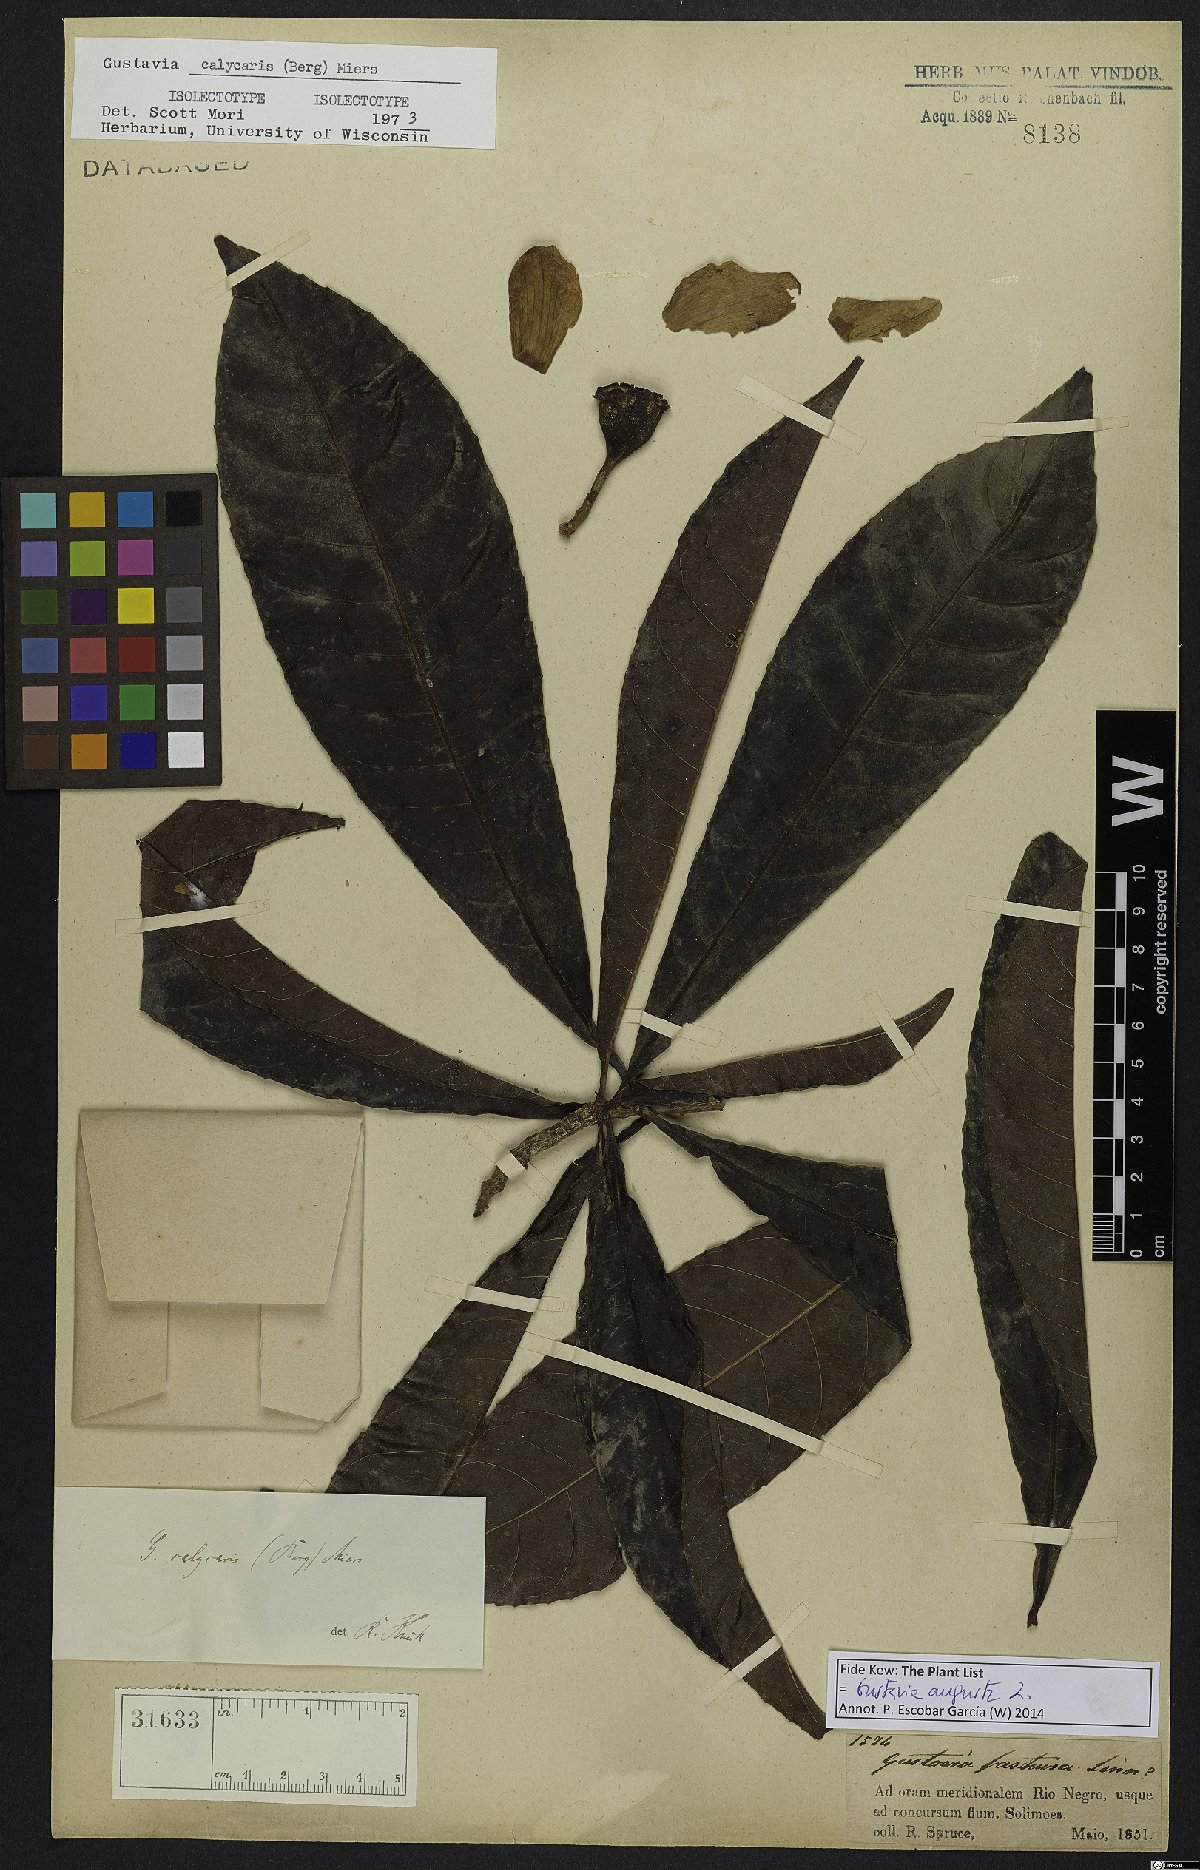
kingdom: Plantae
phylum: Tracheophyta
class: Magnoliopsida
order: Ericales
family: Lecythidaceae
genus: Gustavia
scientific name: Gustavia augusta
